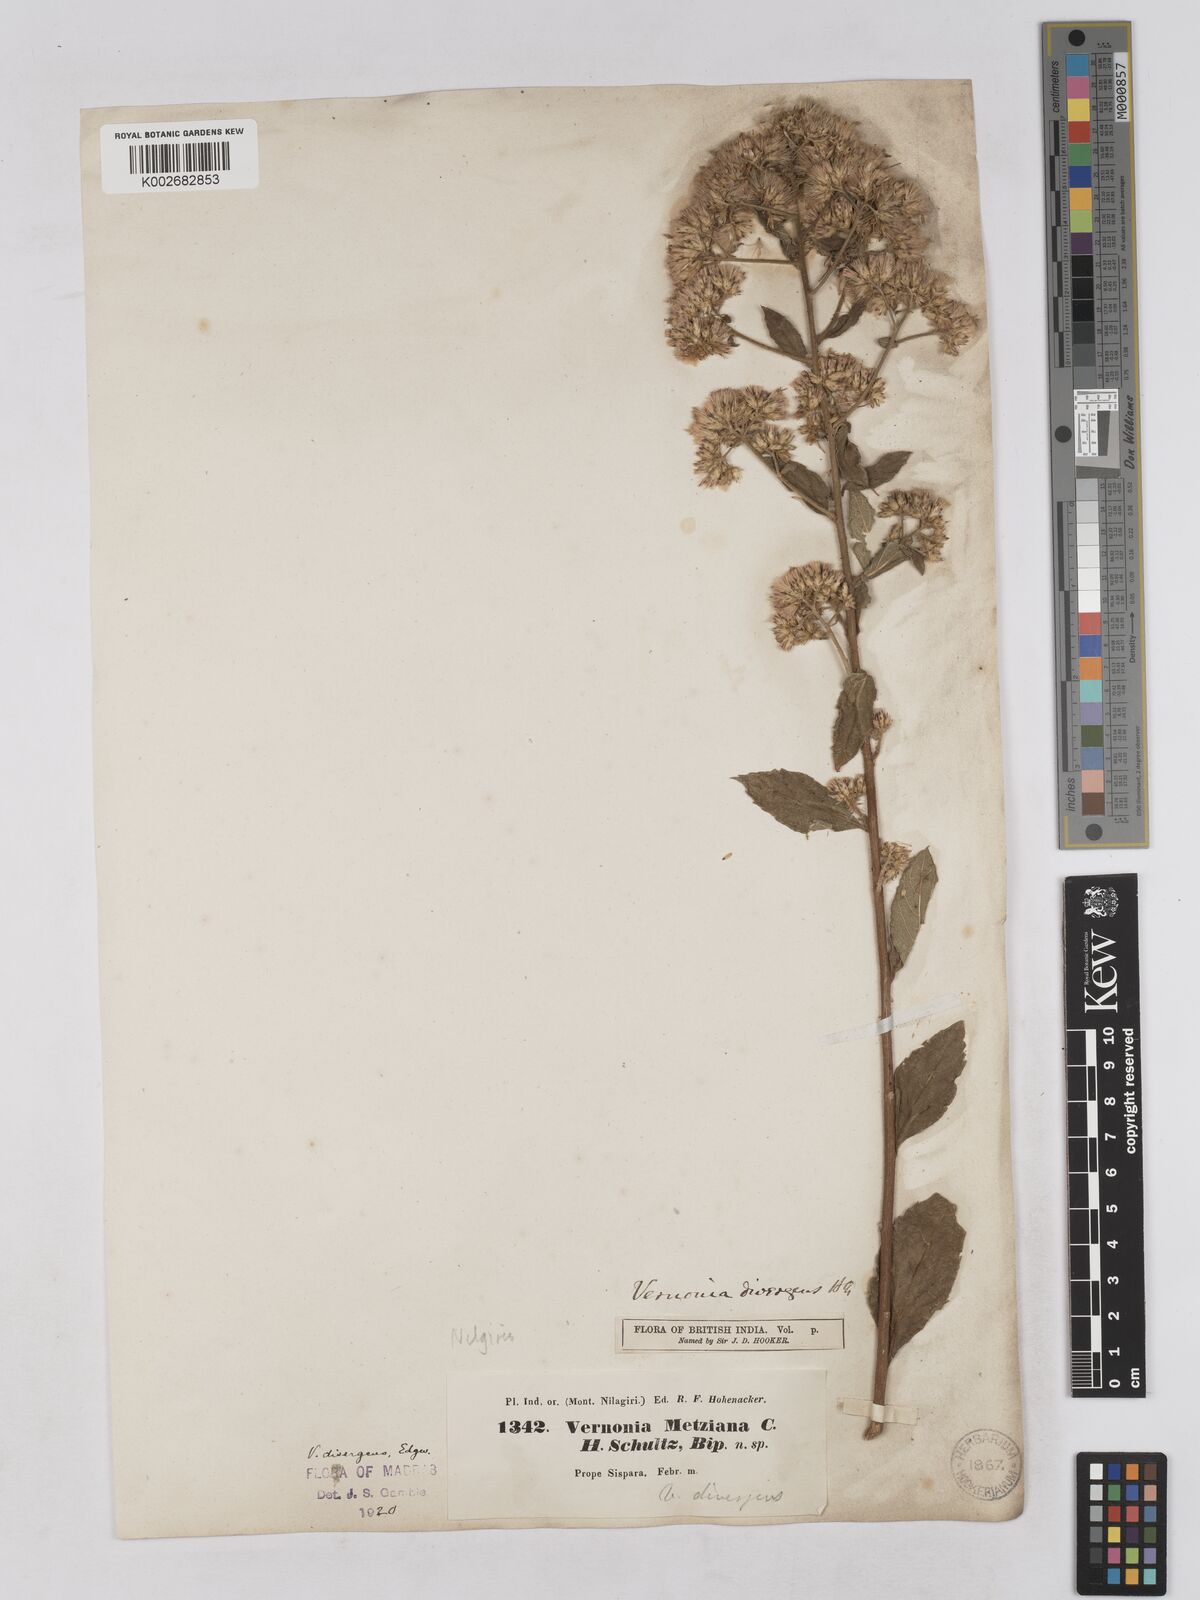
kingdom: Plantae
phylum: Tracheophyta
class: Magnoliopsida
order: Asterales
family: Asteraceae
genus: Acilepis
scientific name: Acilepis divergens
